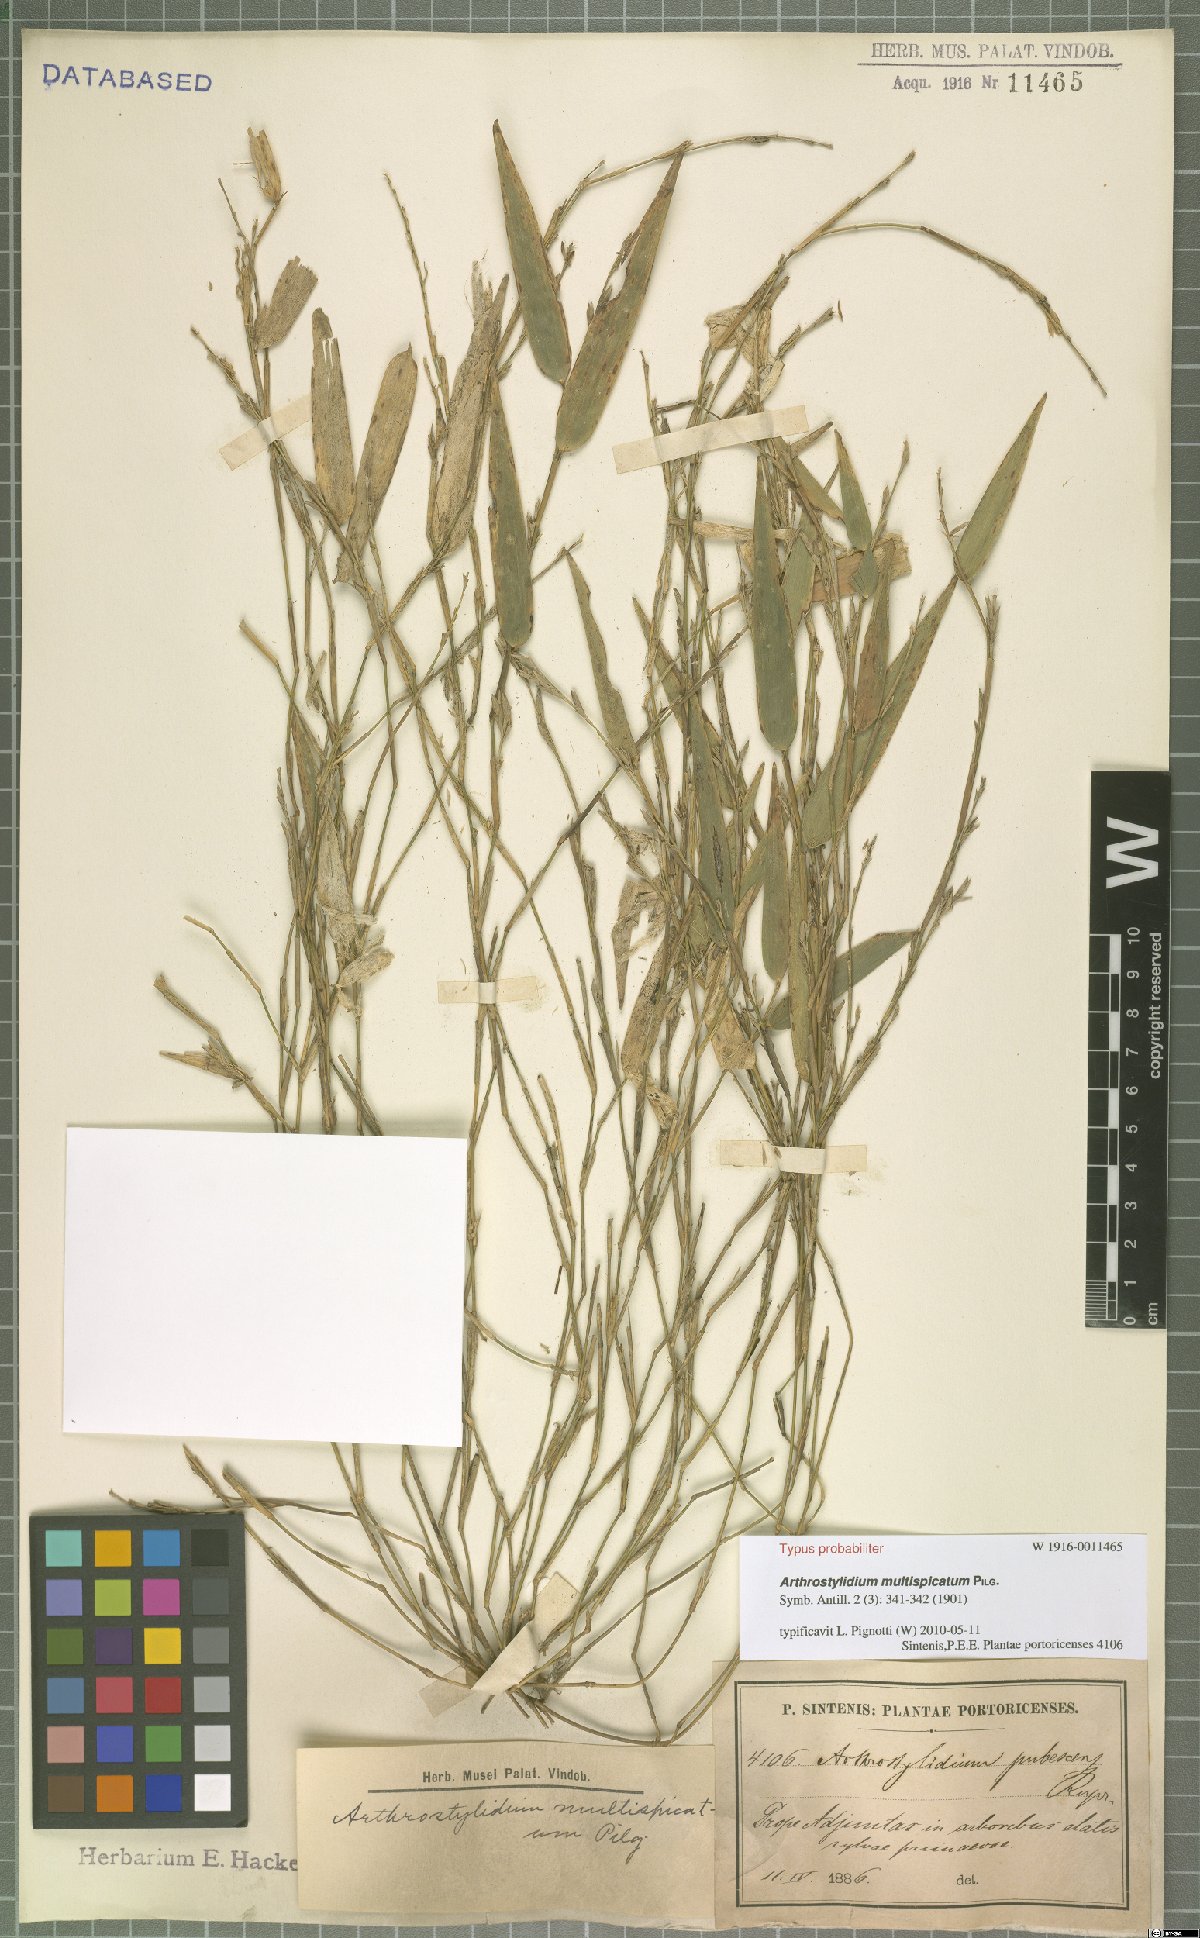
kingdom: Plantae
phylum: Tracheophyta
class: Liliopsida
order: Poales
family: Poaceae
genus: Arthrostylidium
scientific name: Arthrostylidium multispicatum
